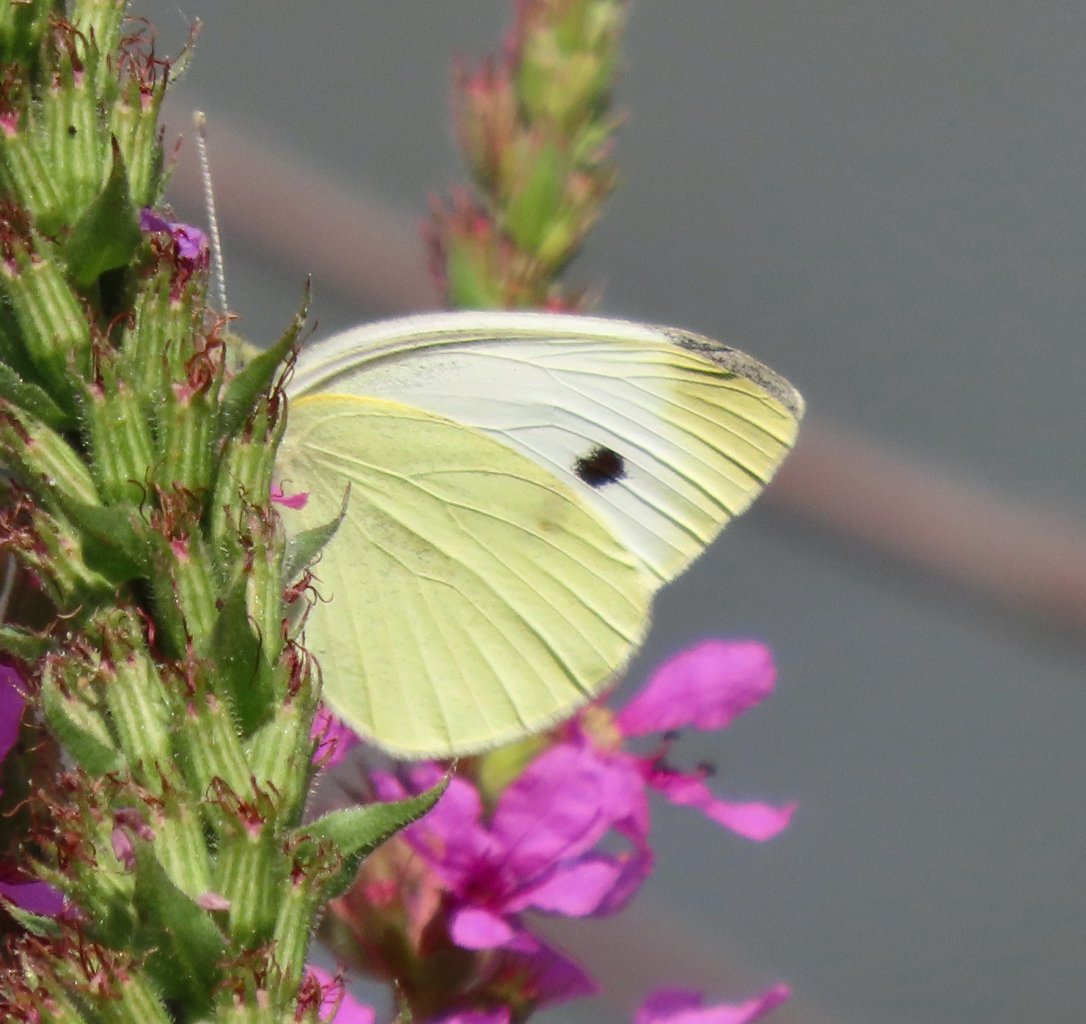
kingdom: Animalia
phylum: Arthropoda
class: Insecta
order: Lepidoptera
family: Pieridae
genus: Pieris
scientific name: Pieris rapae
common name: Cabbage White
